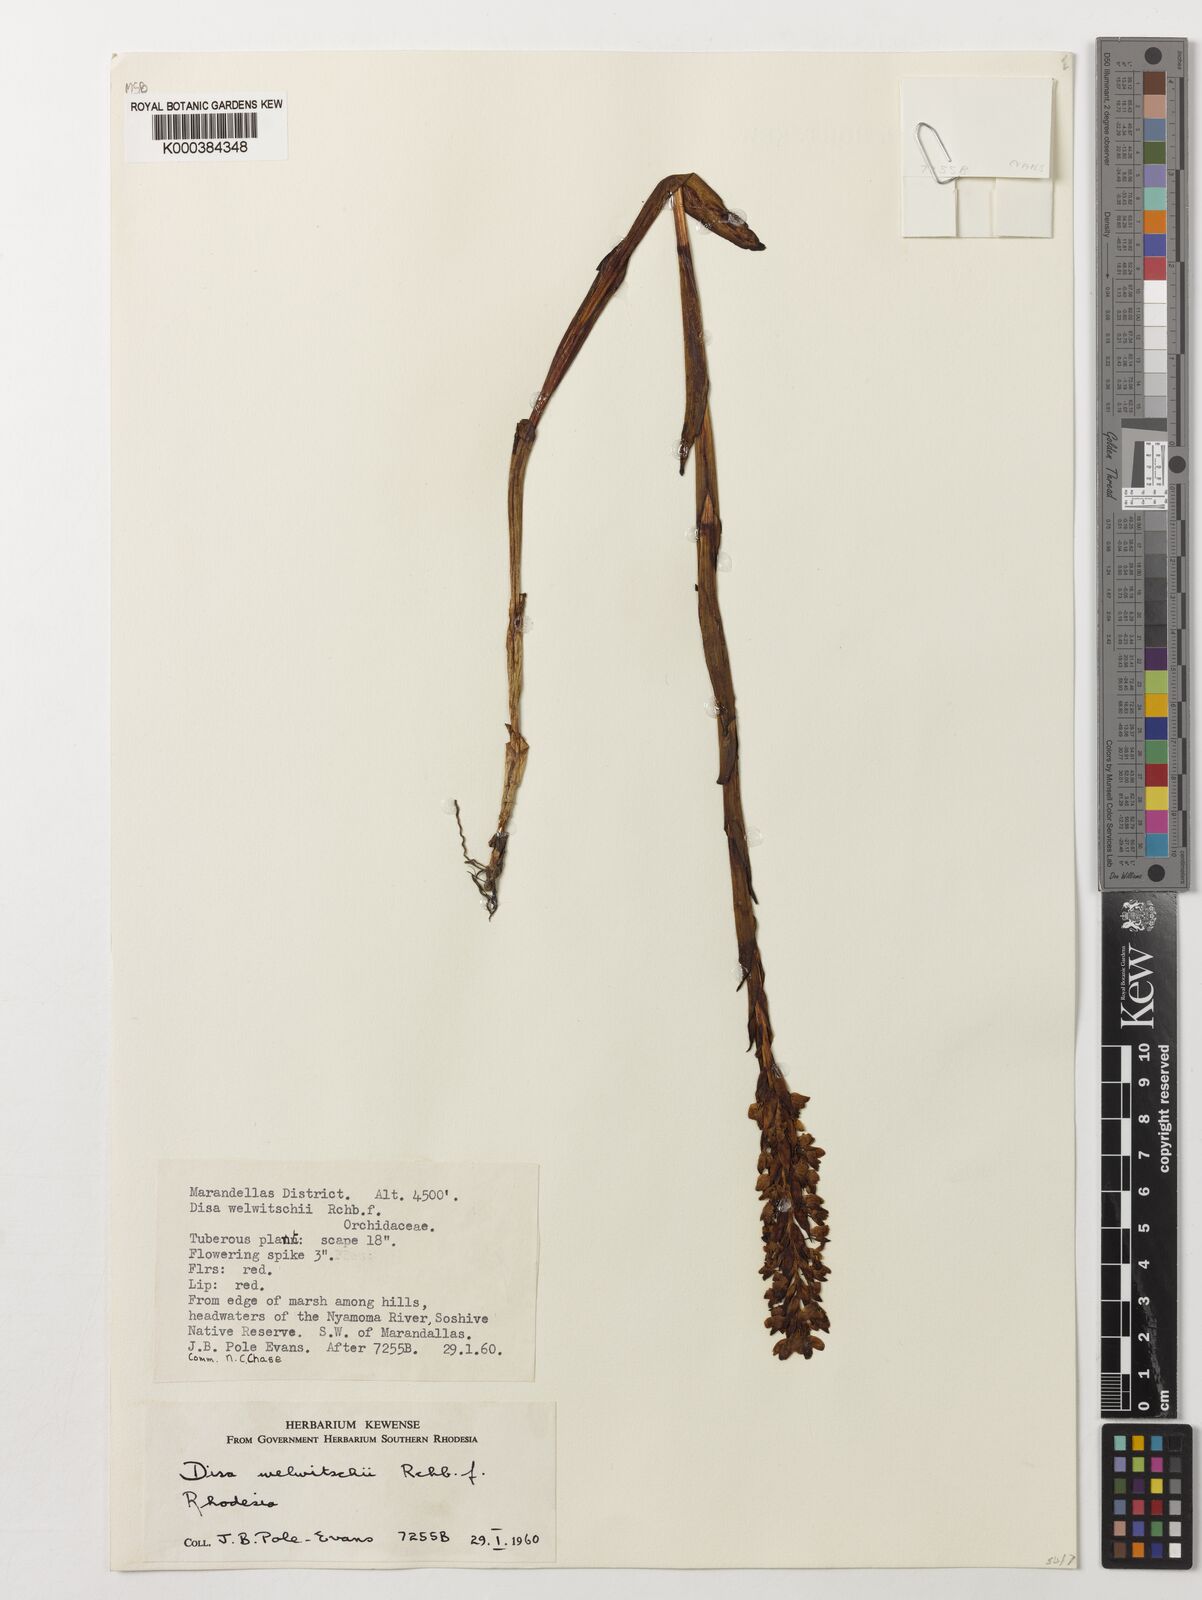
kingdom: Plantae
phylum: Tracheophyta
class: Liliopsida
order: Asparagales
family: Orchidaceae
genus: Disa
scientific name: Disa welwitschii
